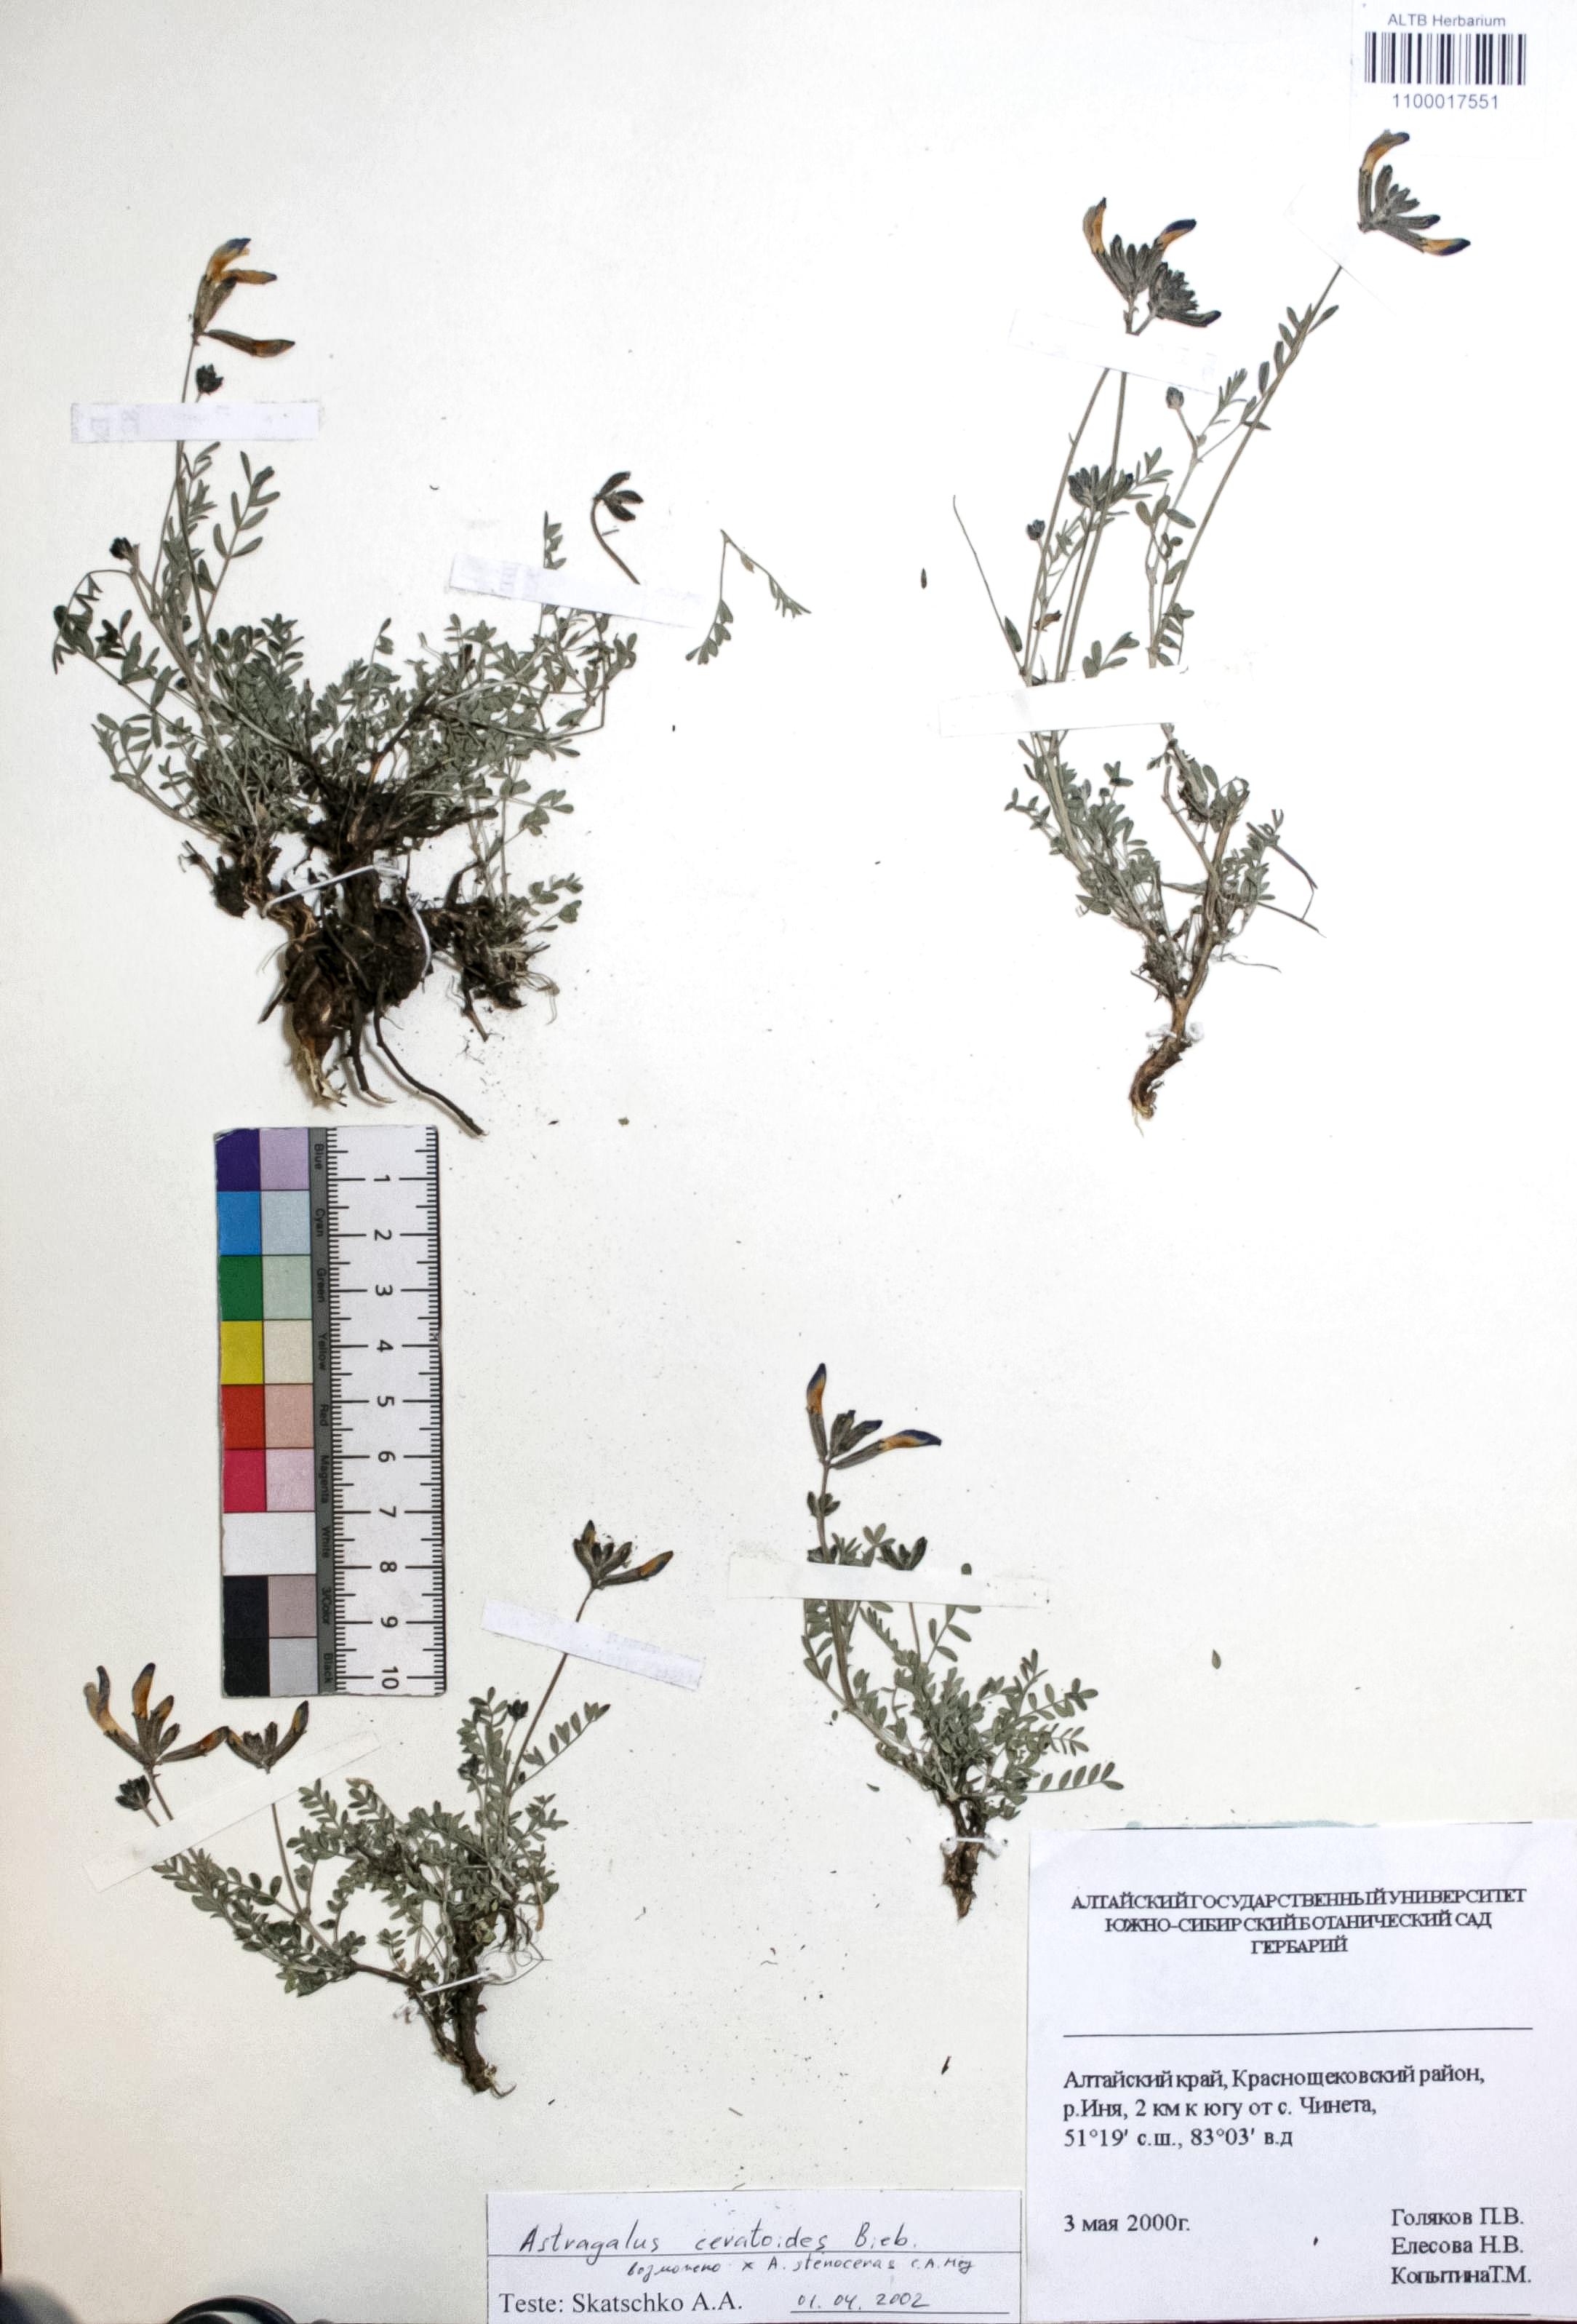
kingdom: Plantae
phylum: Tracheophyta
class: Magnoliopsida
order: Fabales
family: Fabaceae
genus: Astragalus
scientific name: Astragalus ceratoides
